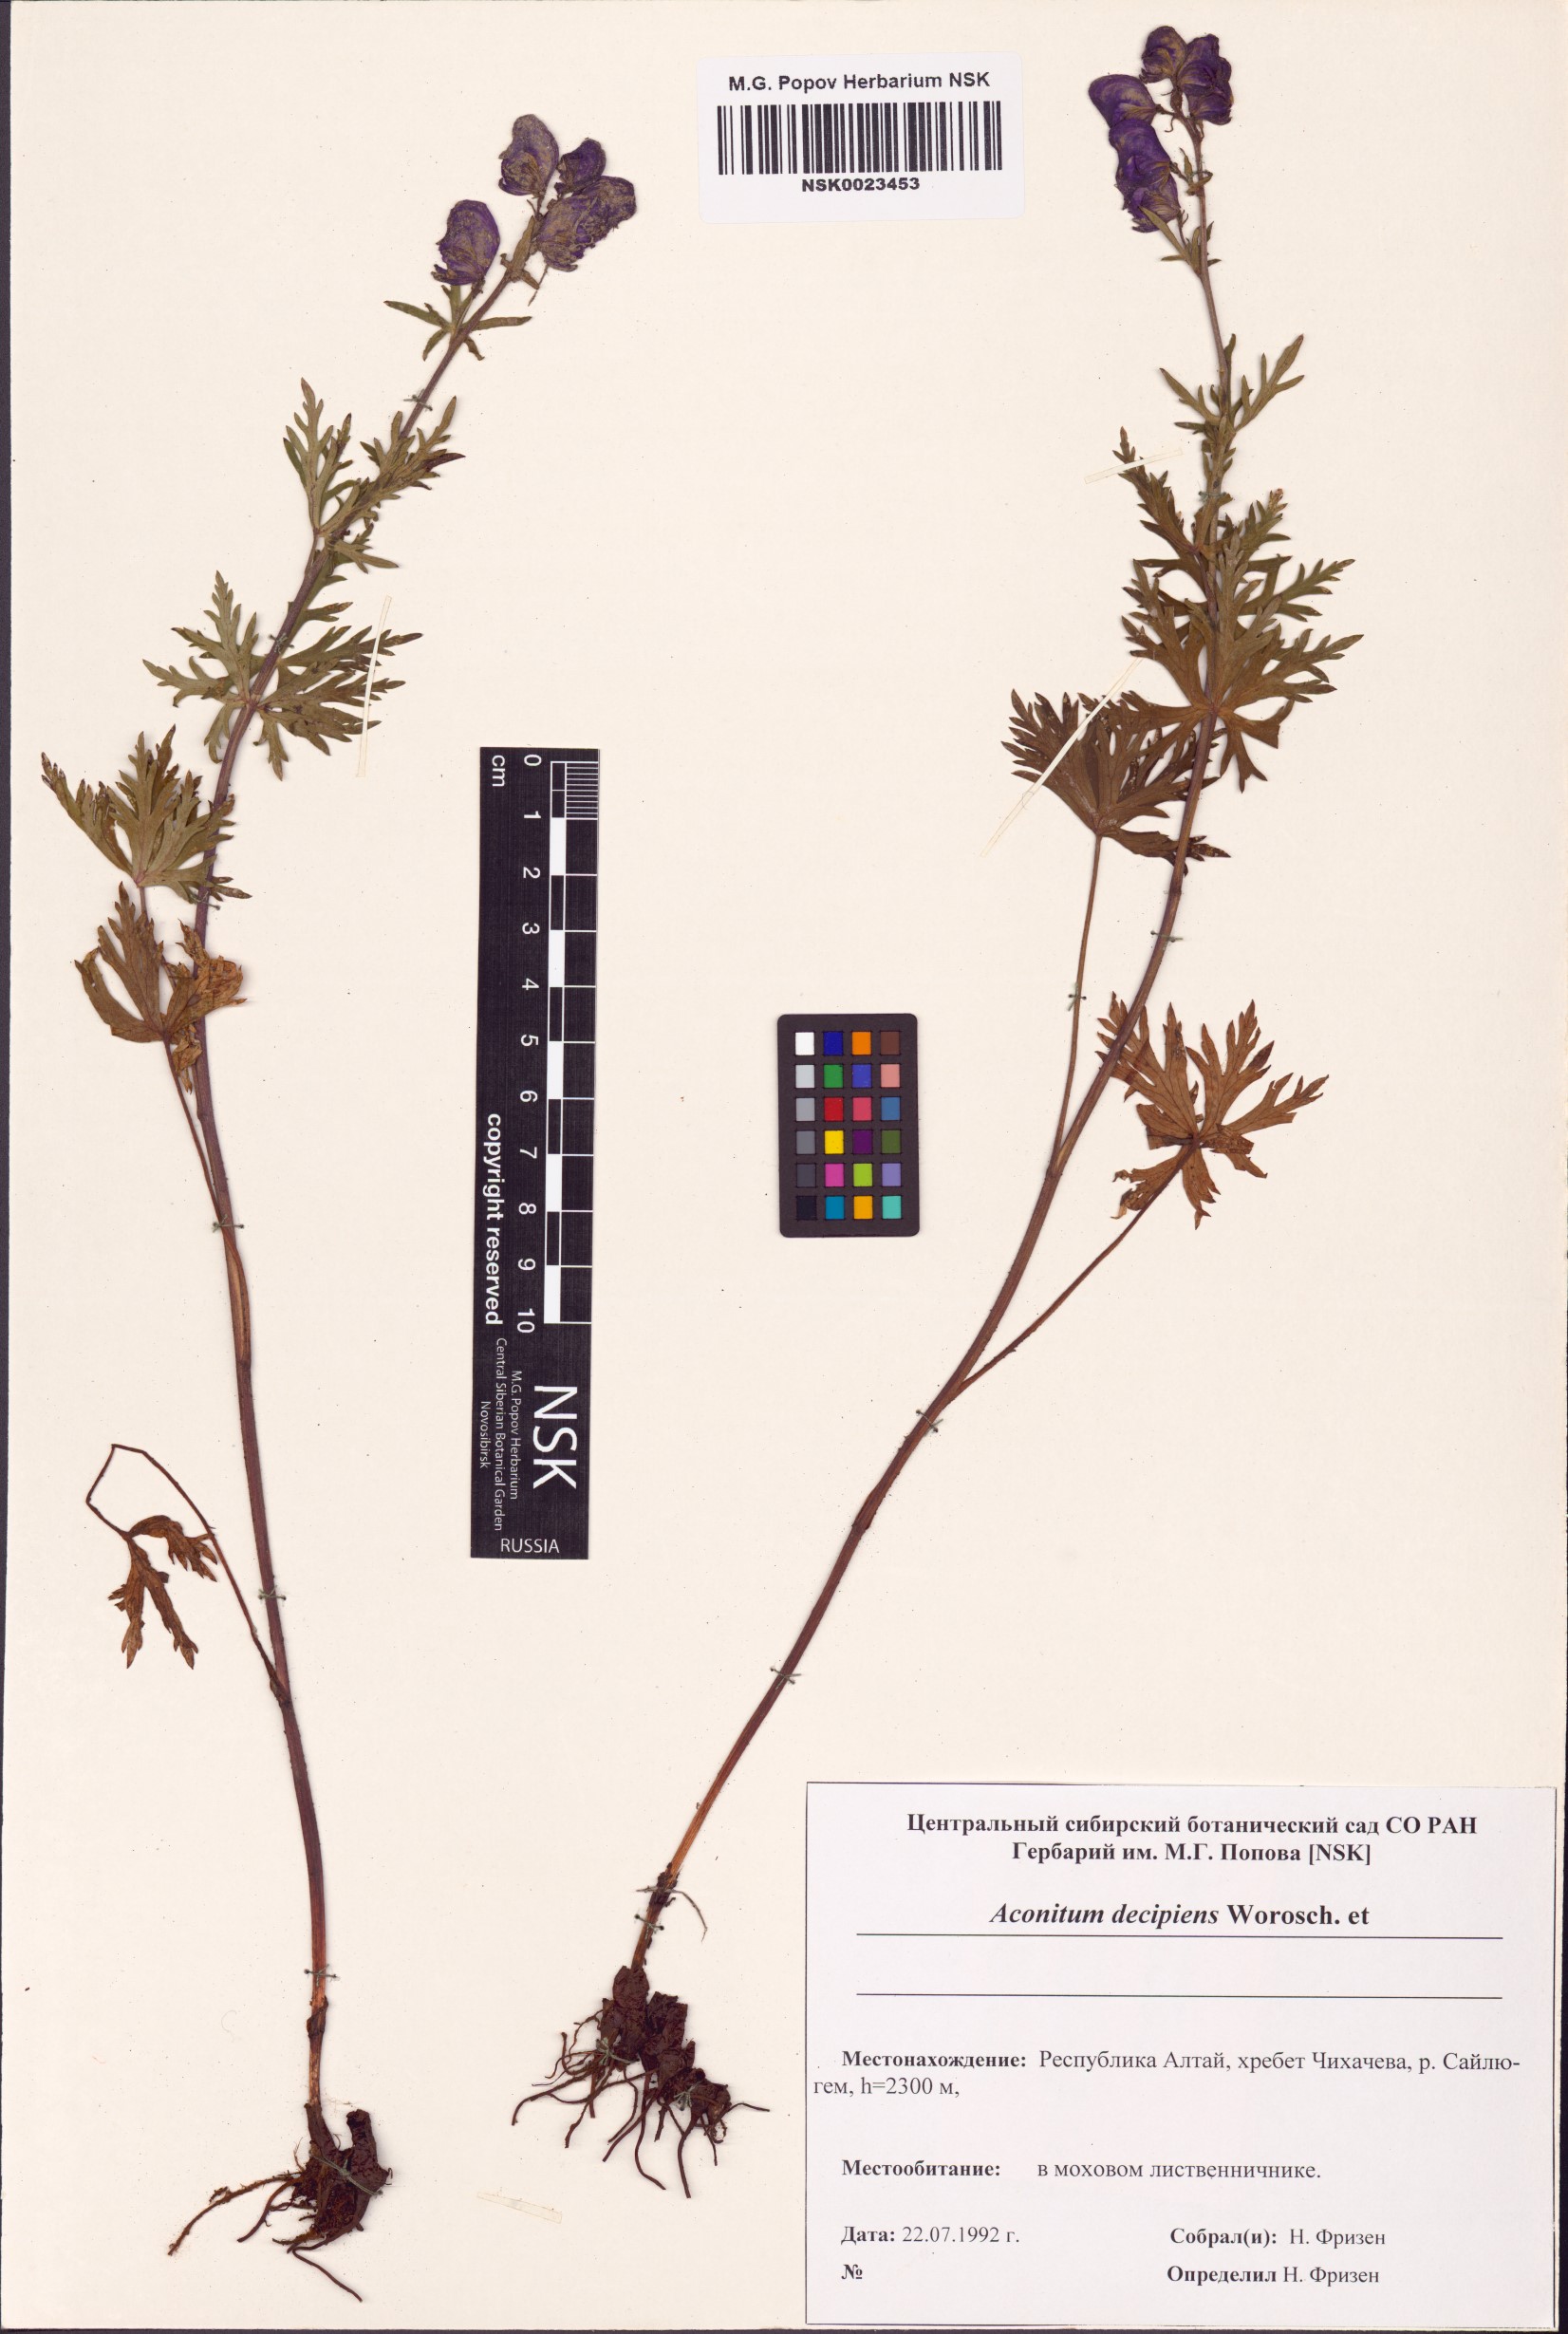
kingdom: Plantae
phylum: Tracheophyta
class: Magnoliopsida
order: Ranunculales
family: Ranunculaceae
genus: Aconitum
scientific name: Aconitum decipiens
